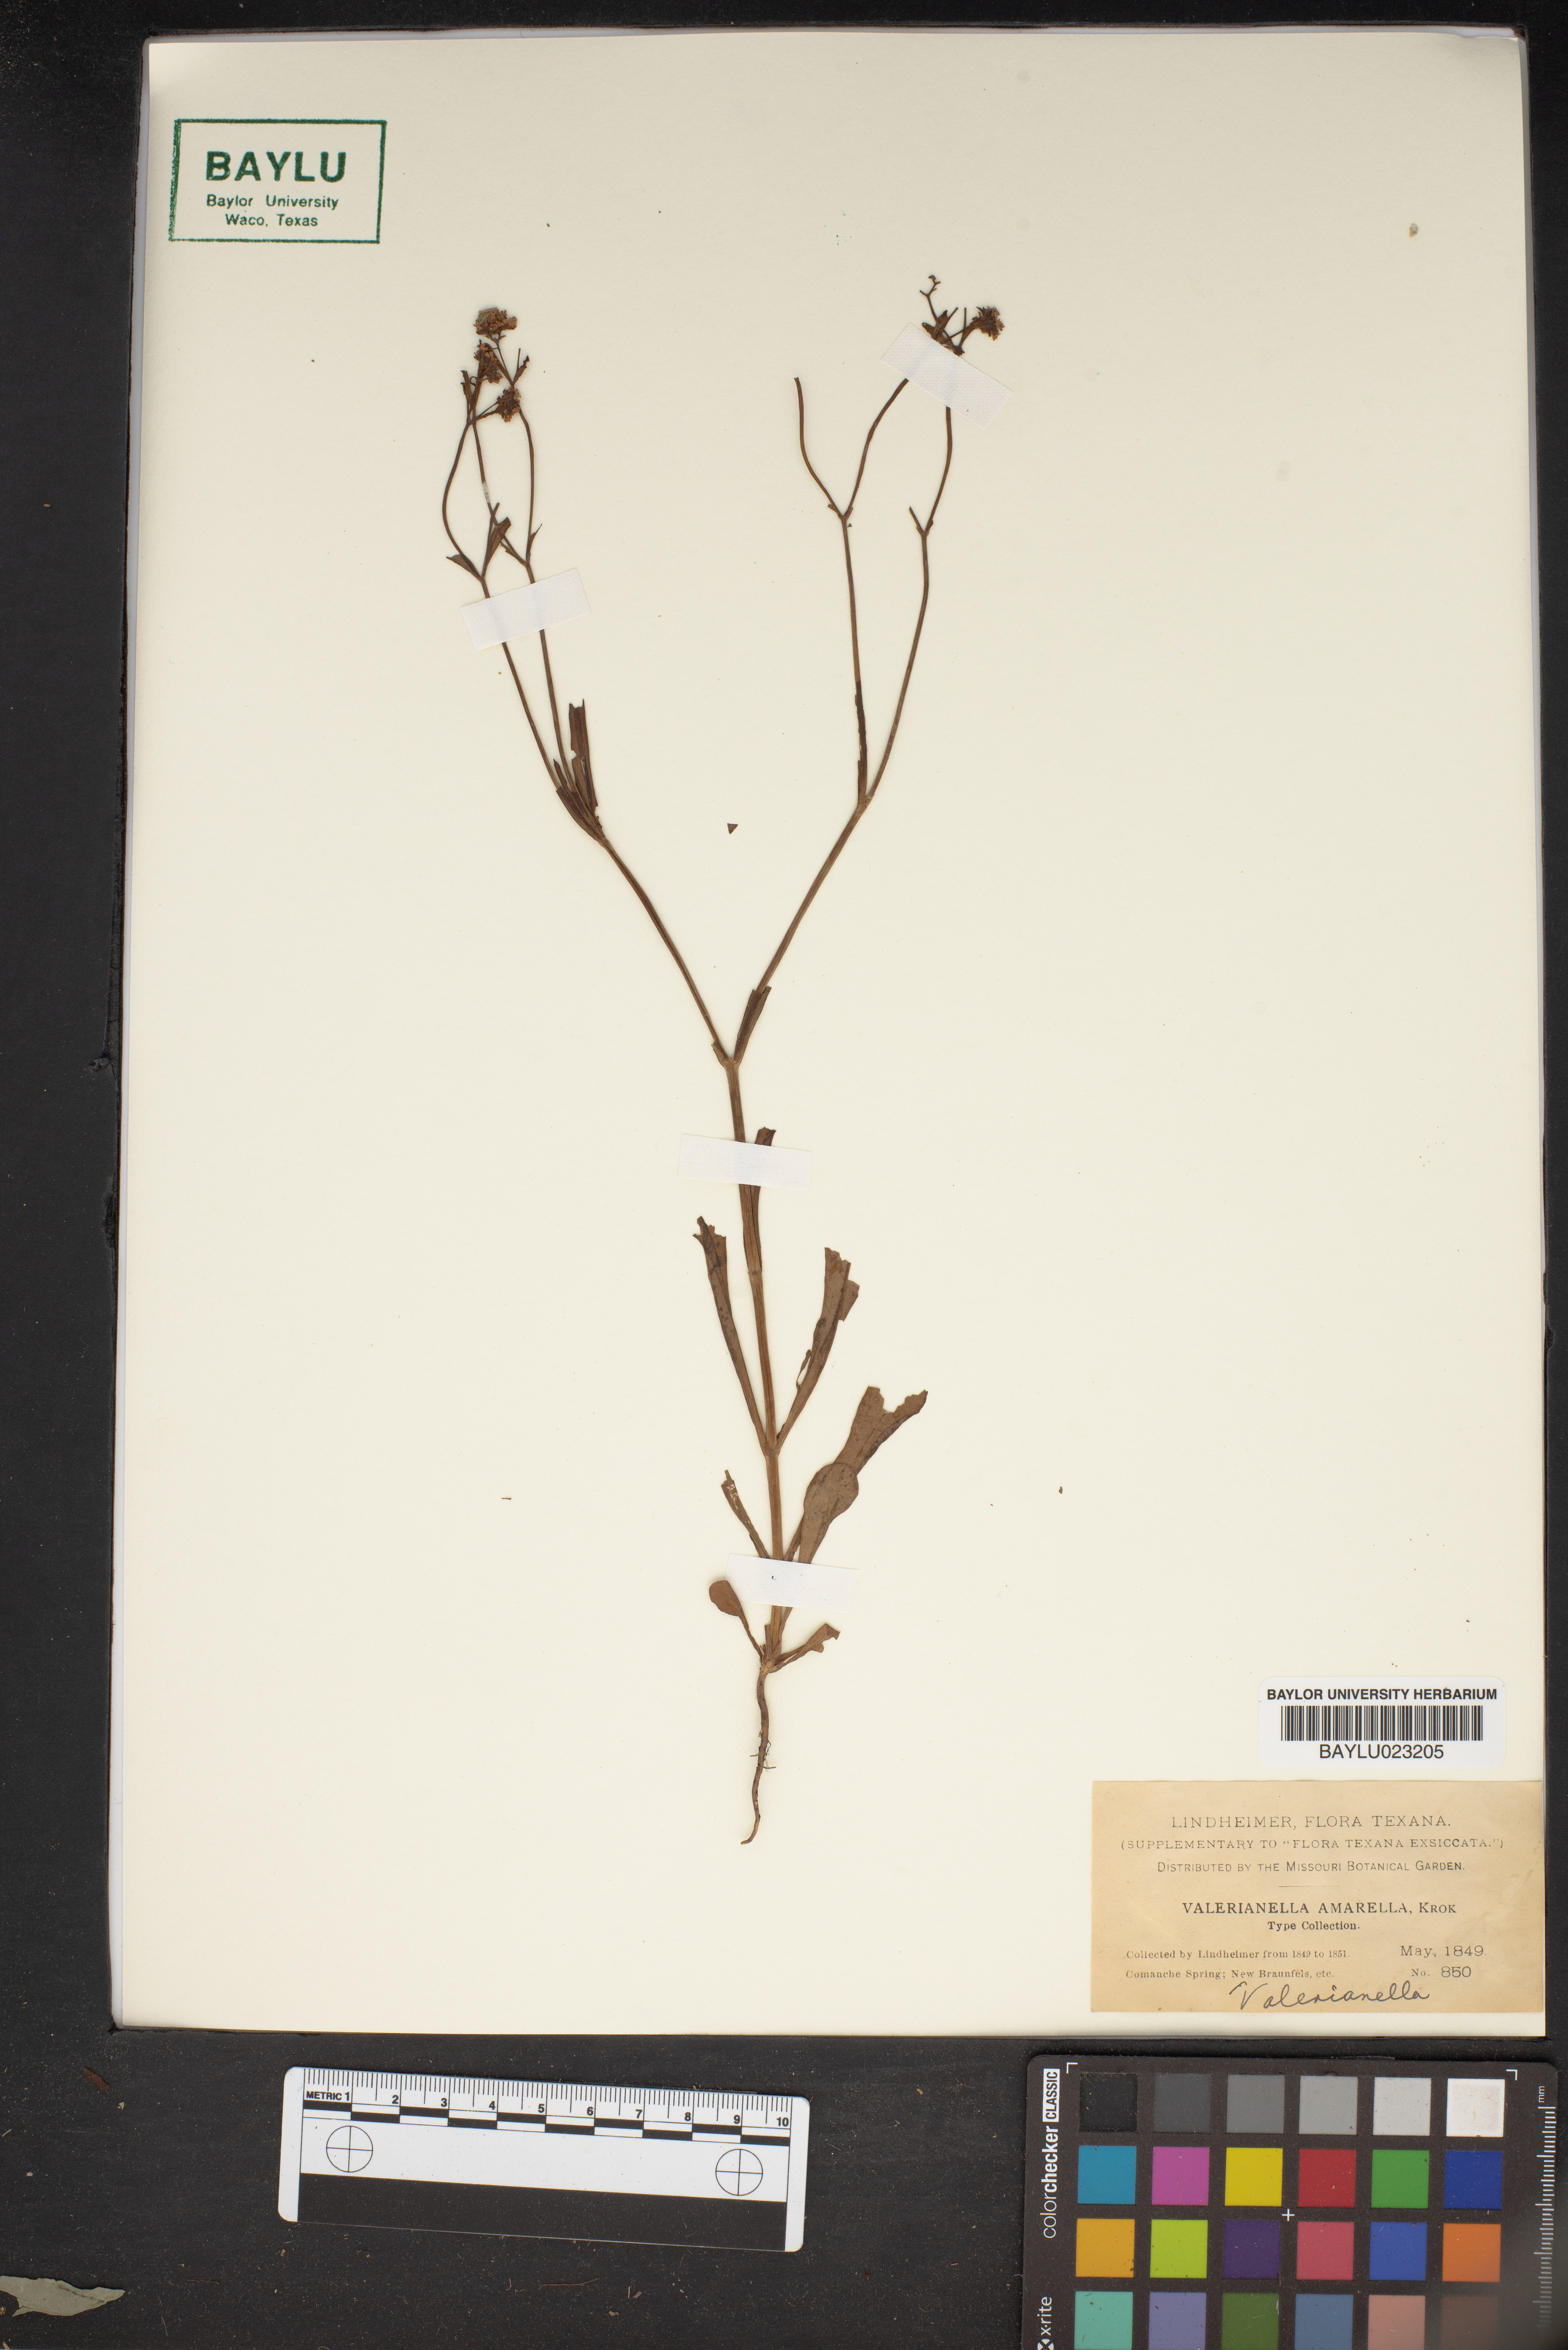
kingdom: Plantae
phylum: Tracheophyta
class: Magnoliopsida
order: Dipsacales
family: Caprifoliaceae
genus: Valerianella
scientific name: Valerianella amarella
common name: Hariy cornsalad
